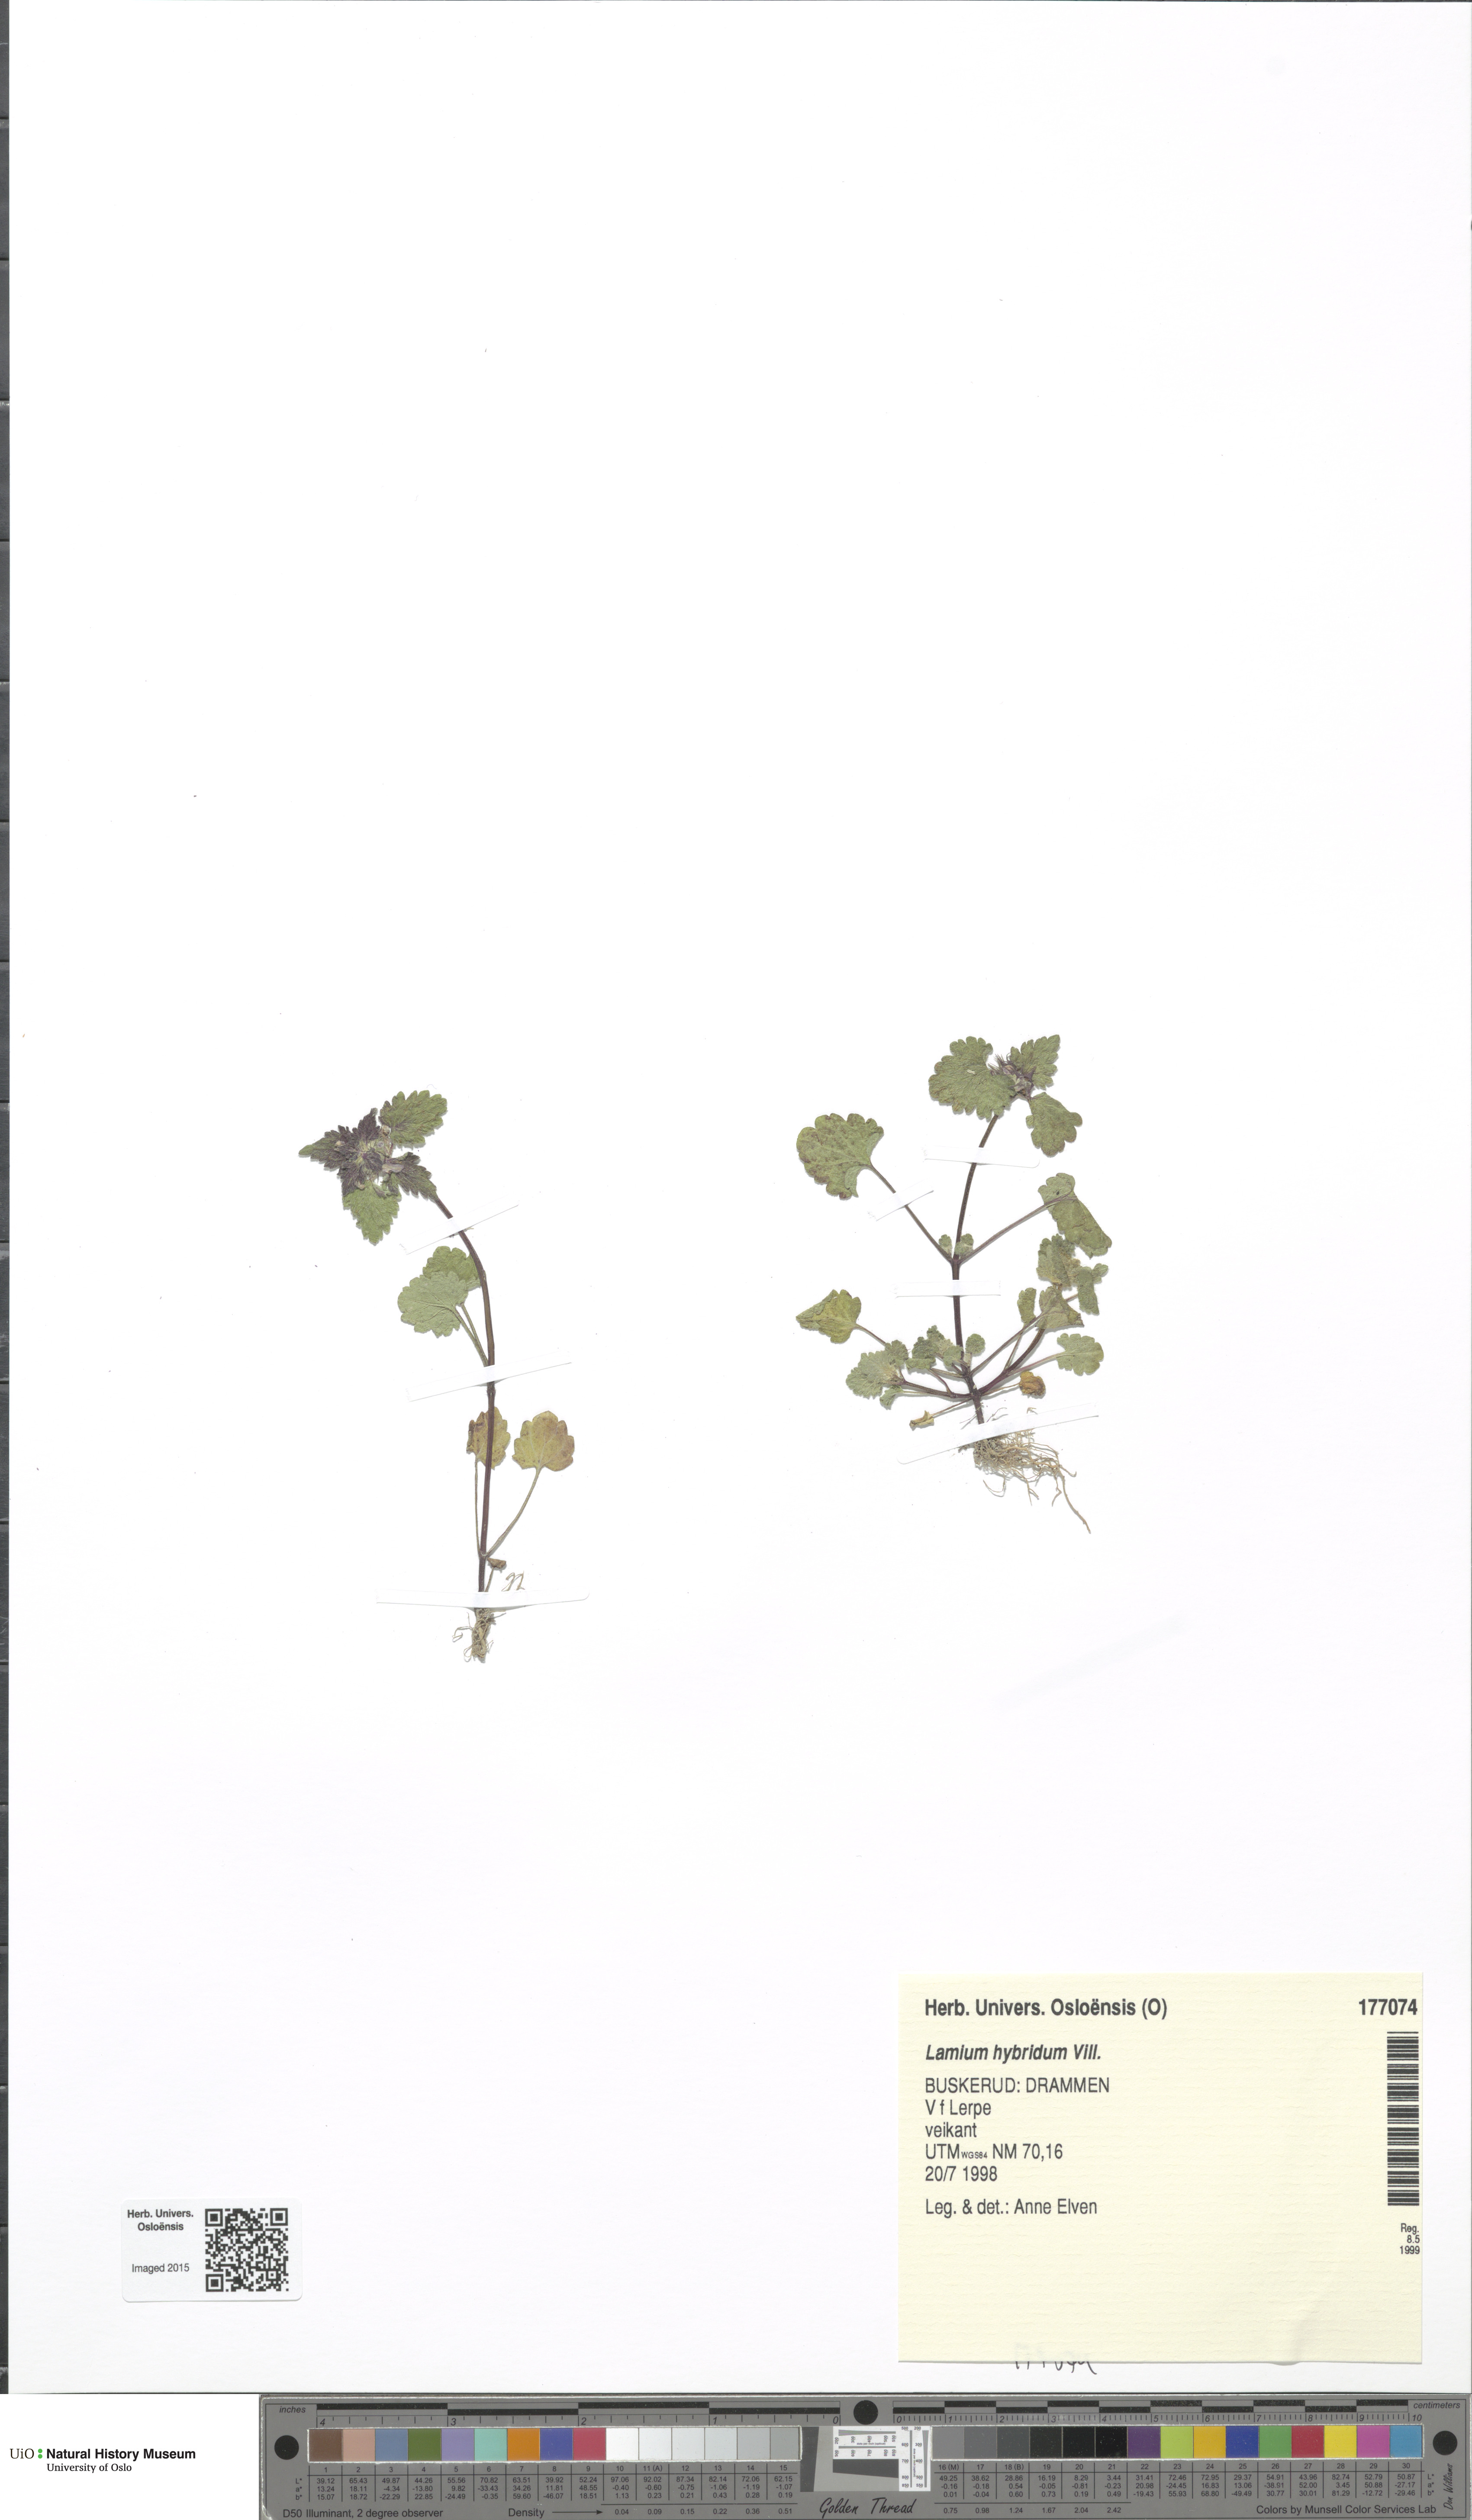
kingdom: Plantae
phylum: Tracheophyta
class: Magnoliopsida
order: Lamiales
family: Lamiaceae
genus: Lamium
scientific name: Lamium hybridum
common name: Cut-leaved dead-nettle
